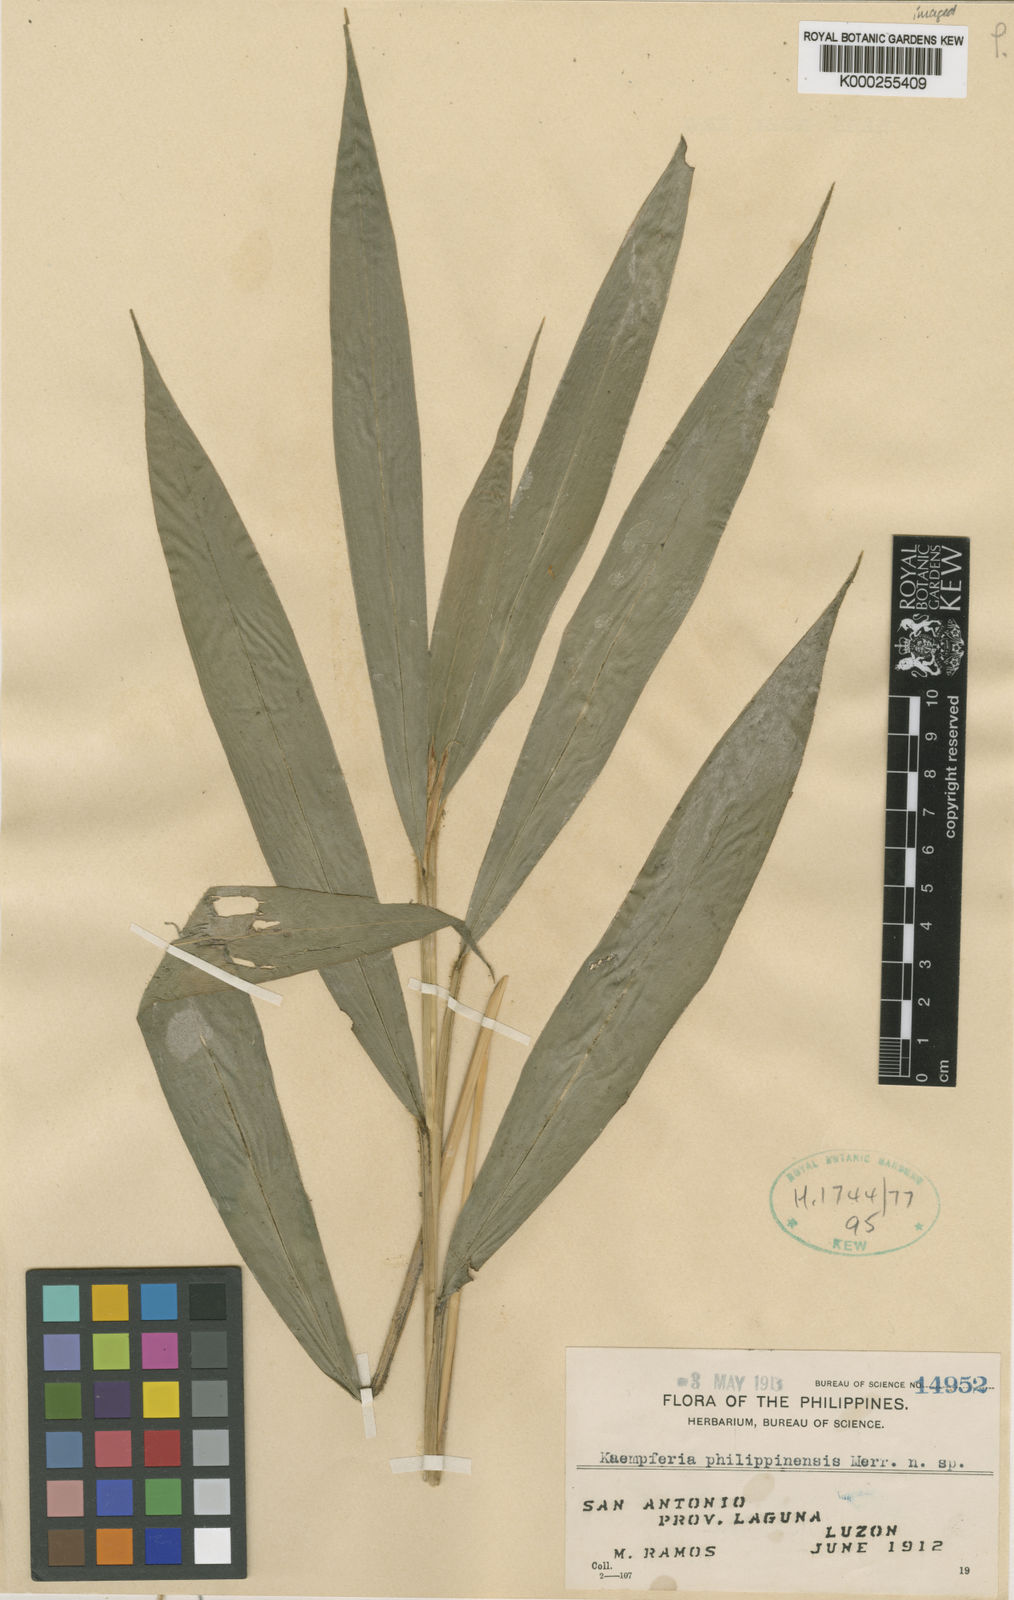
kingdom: Plantae
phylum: Tracheophyta
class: Liliopsida
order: Zingiberales
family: Zingiberaceae
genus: Kaempferia
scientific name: Kaempferia galanga
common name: Aromatic ginger
